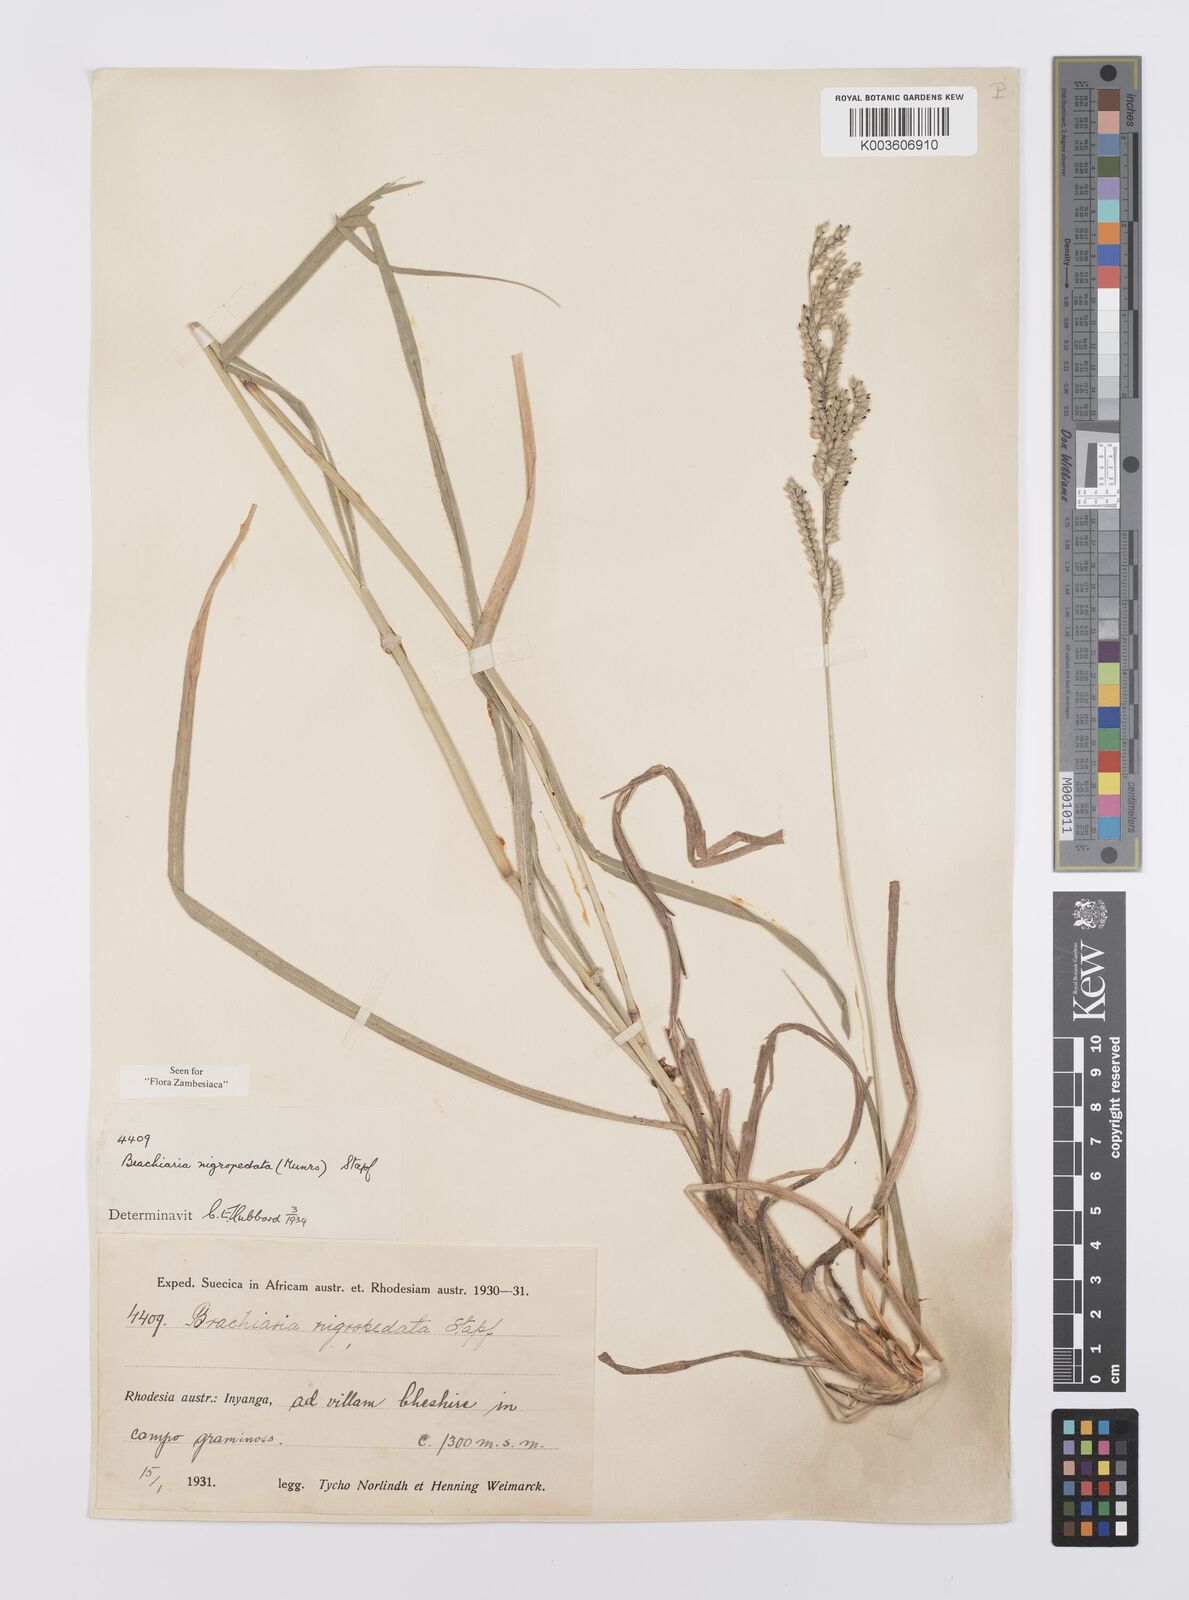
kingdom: Plantae
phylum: Tracheophyta
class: Liliopsida
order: Poales
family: Poaceae
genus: Urochloa
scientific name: Urochloa nigropedata
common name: Spotted signal grass
